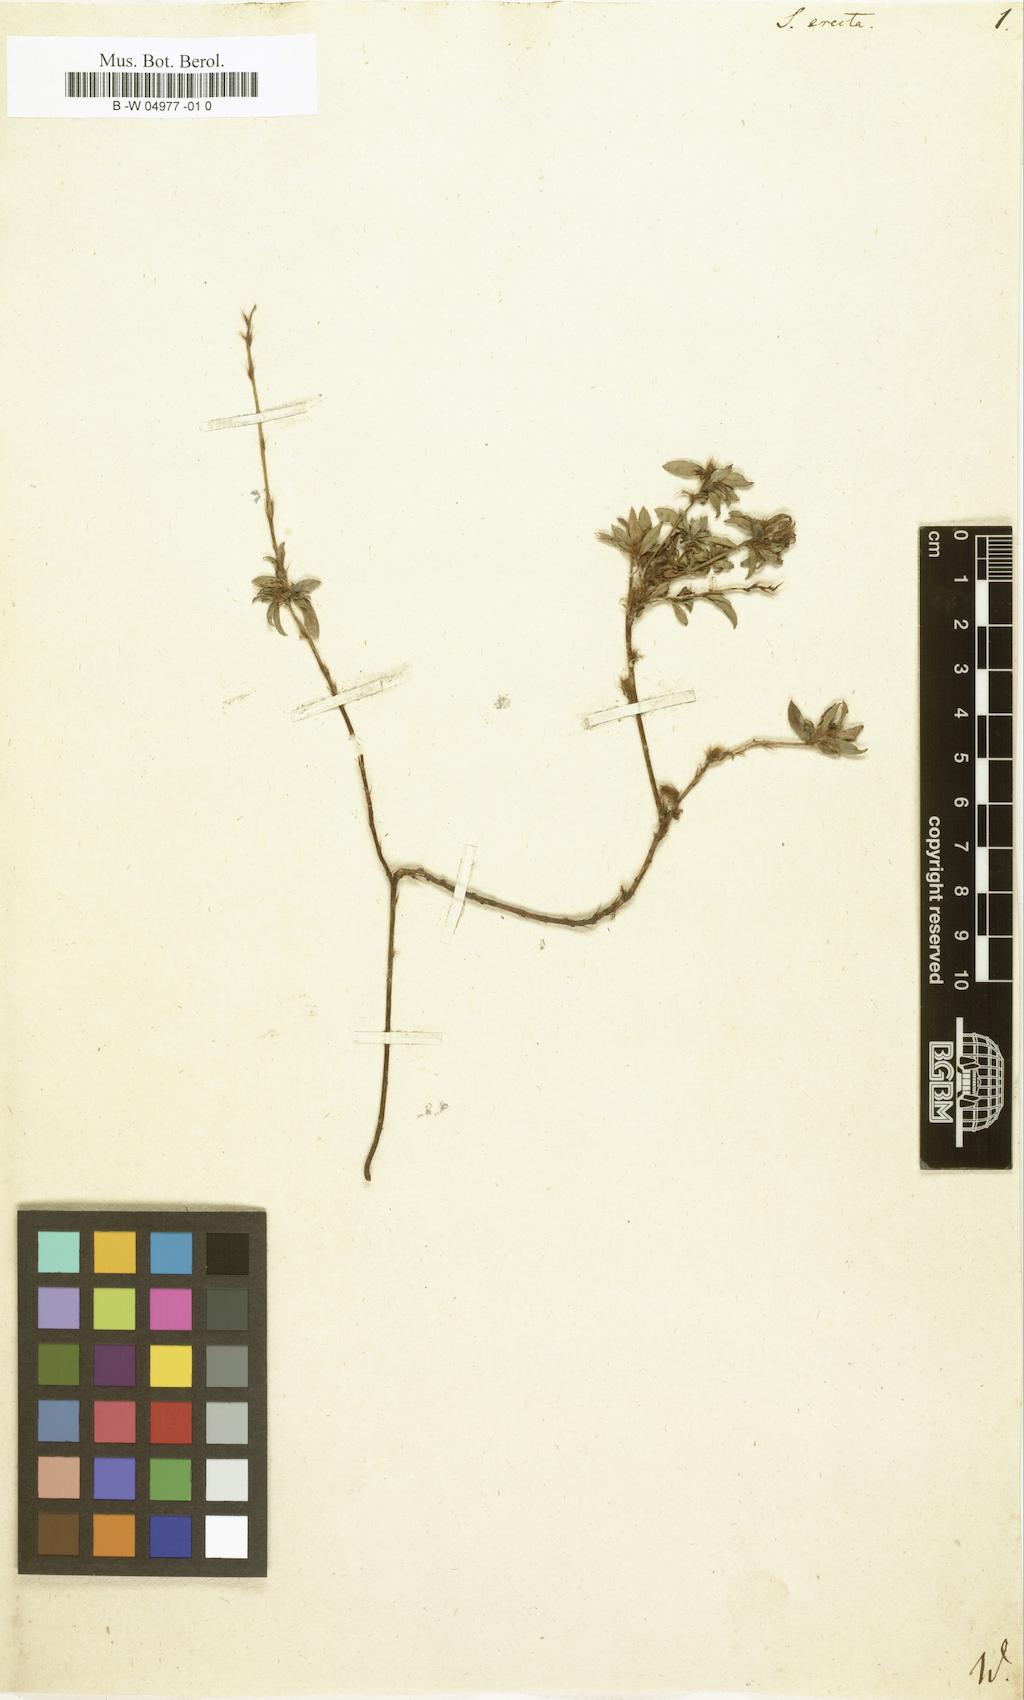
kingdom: Plantae
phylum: Tracheophyta
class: Magnoliopsida
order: Malpighiales
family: Ochnaceae
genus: Sauvagesia
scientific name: Sauvagesia erecta
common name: Creole tea
